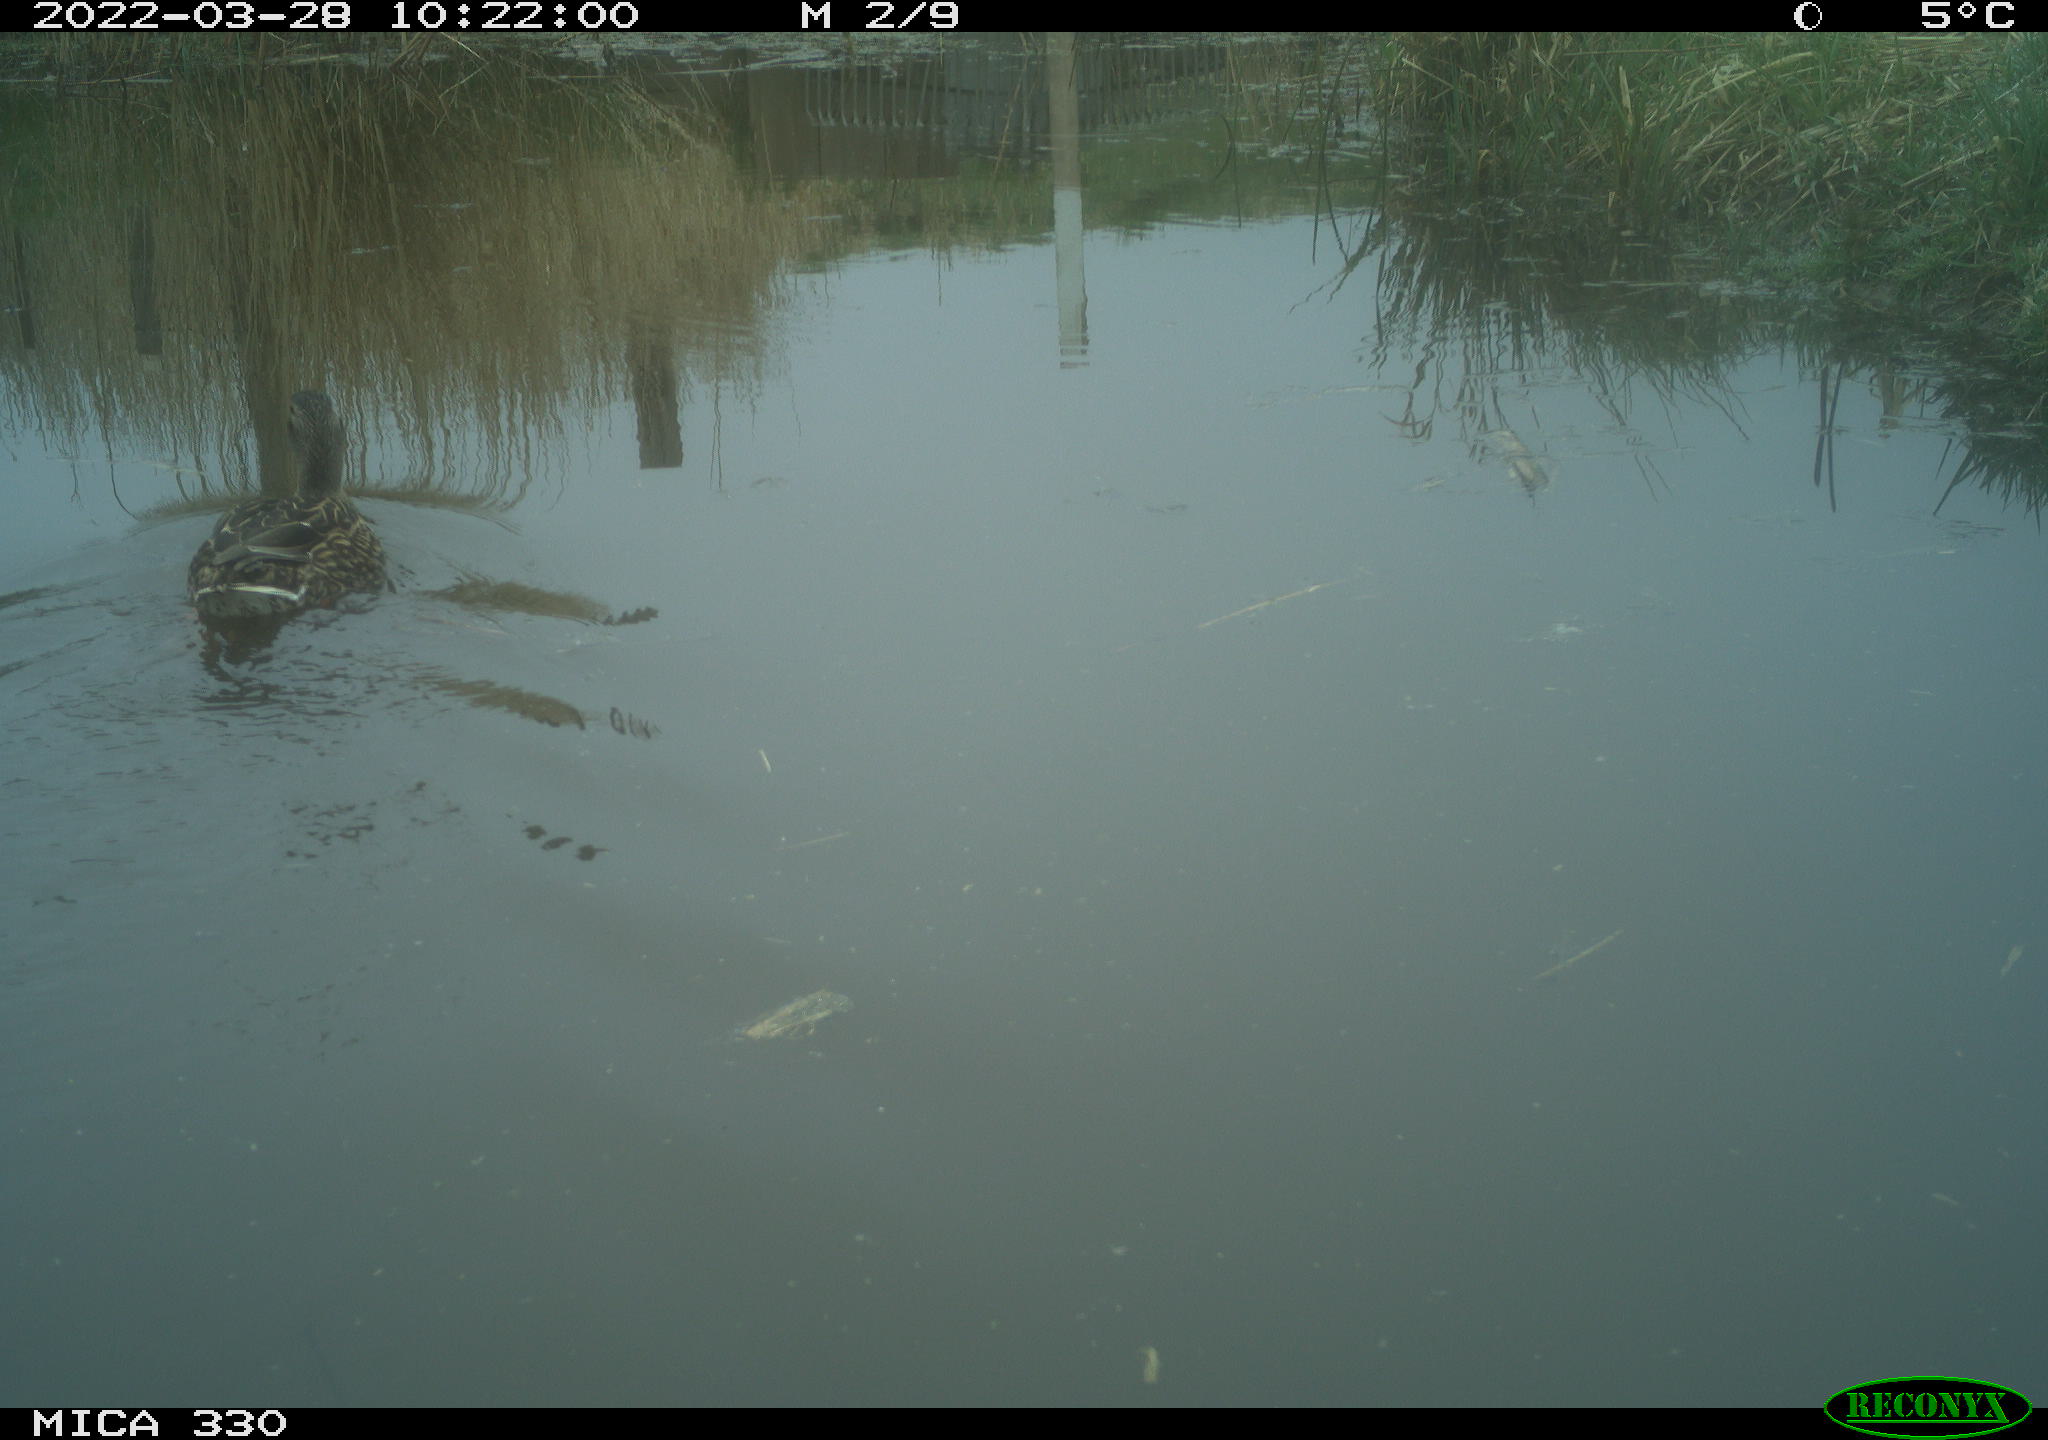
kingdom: Animalia
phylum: Chordata
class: Aves
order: Anseriformes
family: Anatidae
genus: Anas
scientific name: Anas platyrhynchos
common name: Mallard
